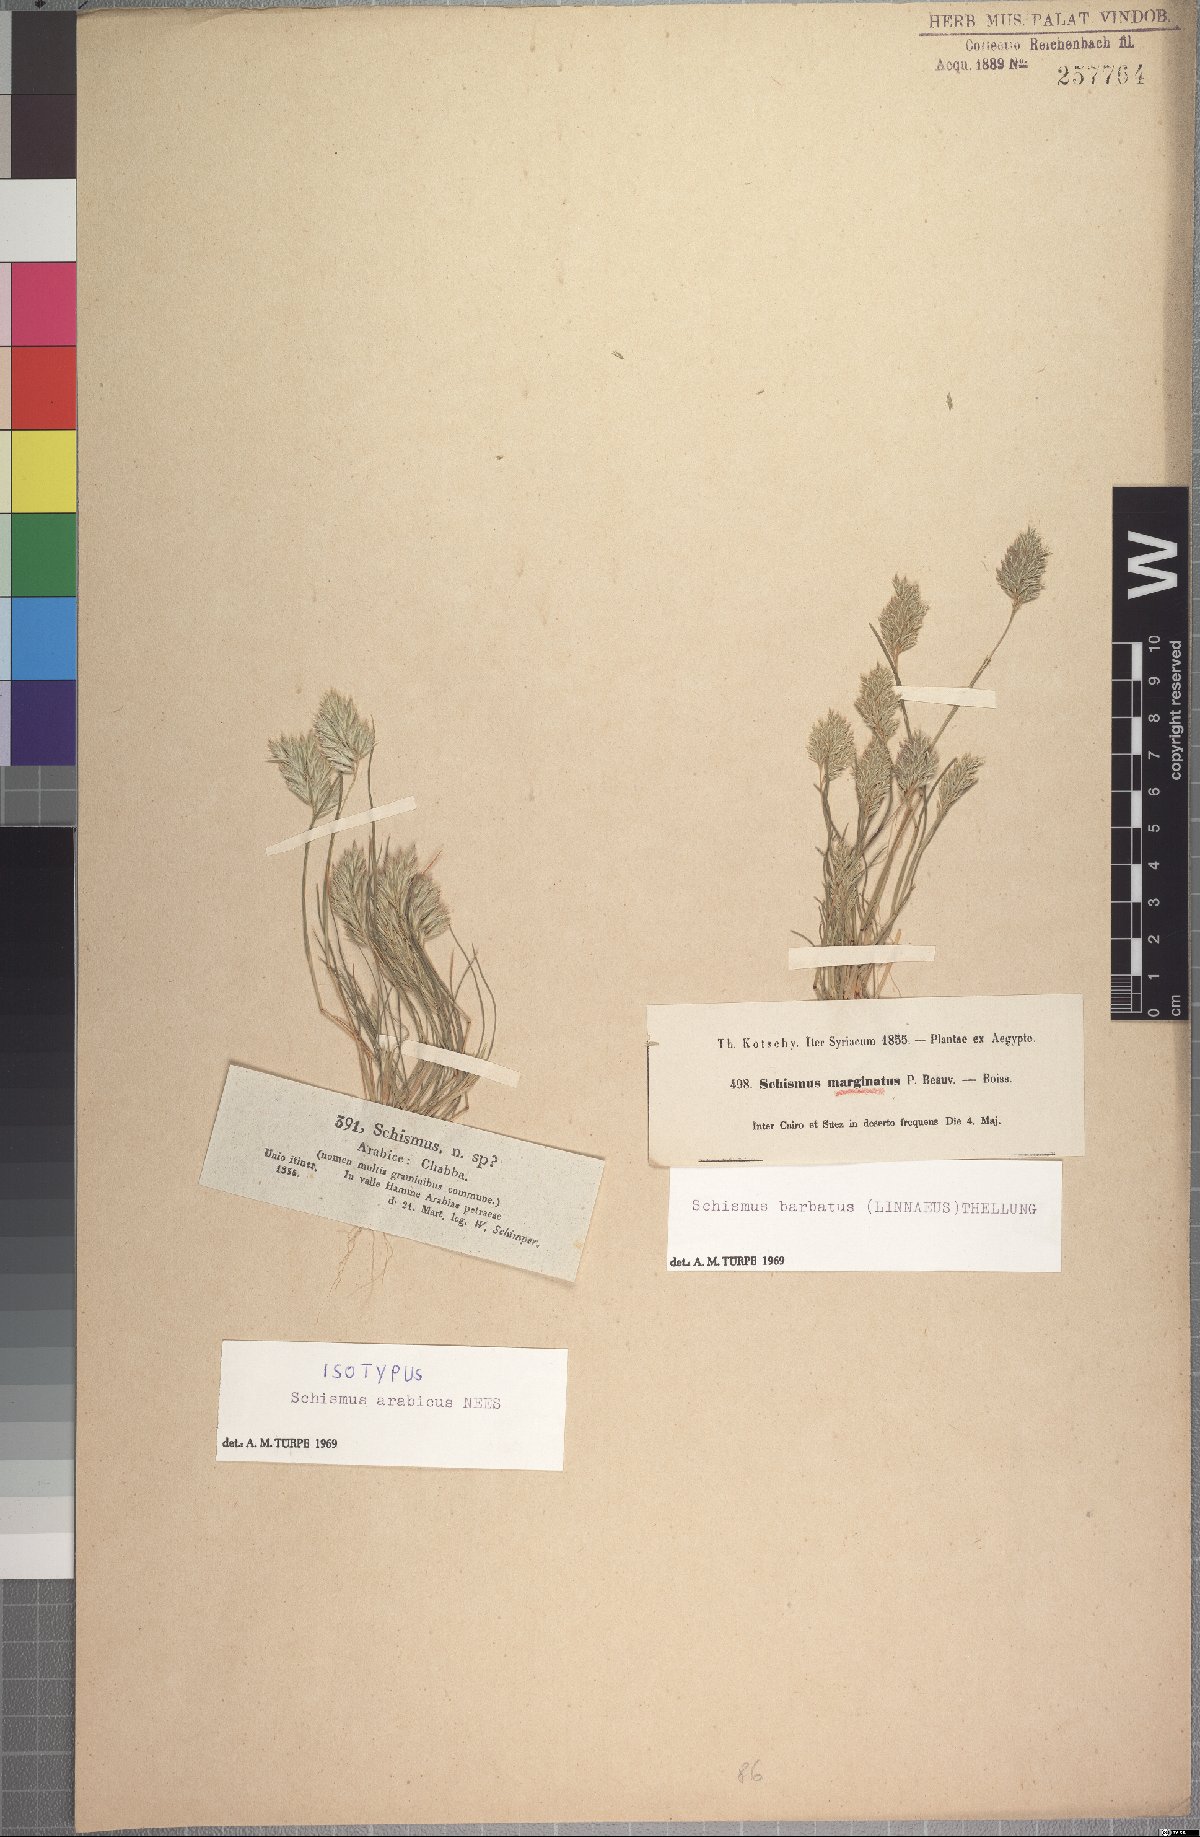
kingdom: Plantae
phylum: Tracheophyta
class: Liliopsida
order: Poales
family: Poaceae
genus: Schismus
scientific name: Schismus arabicus
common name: Arabian schismus
